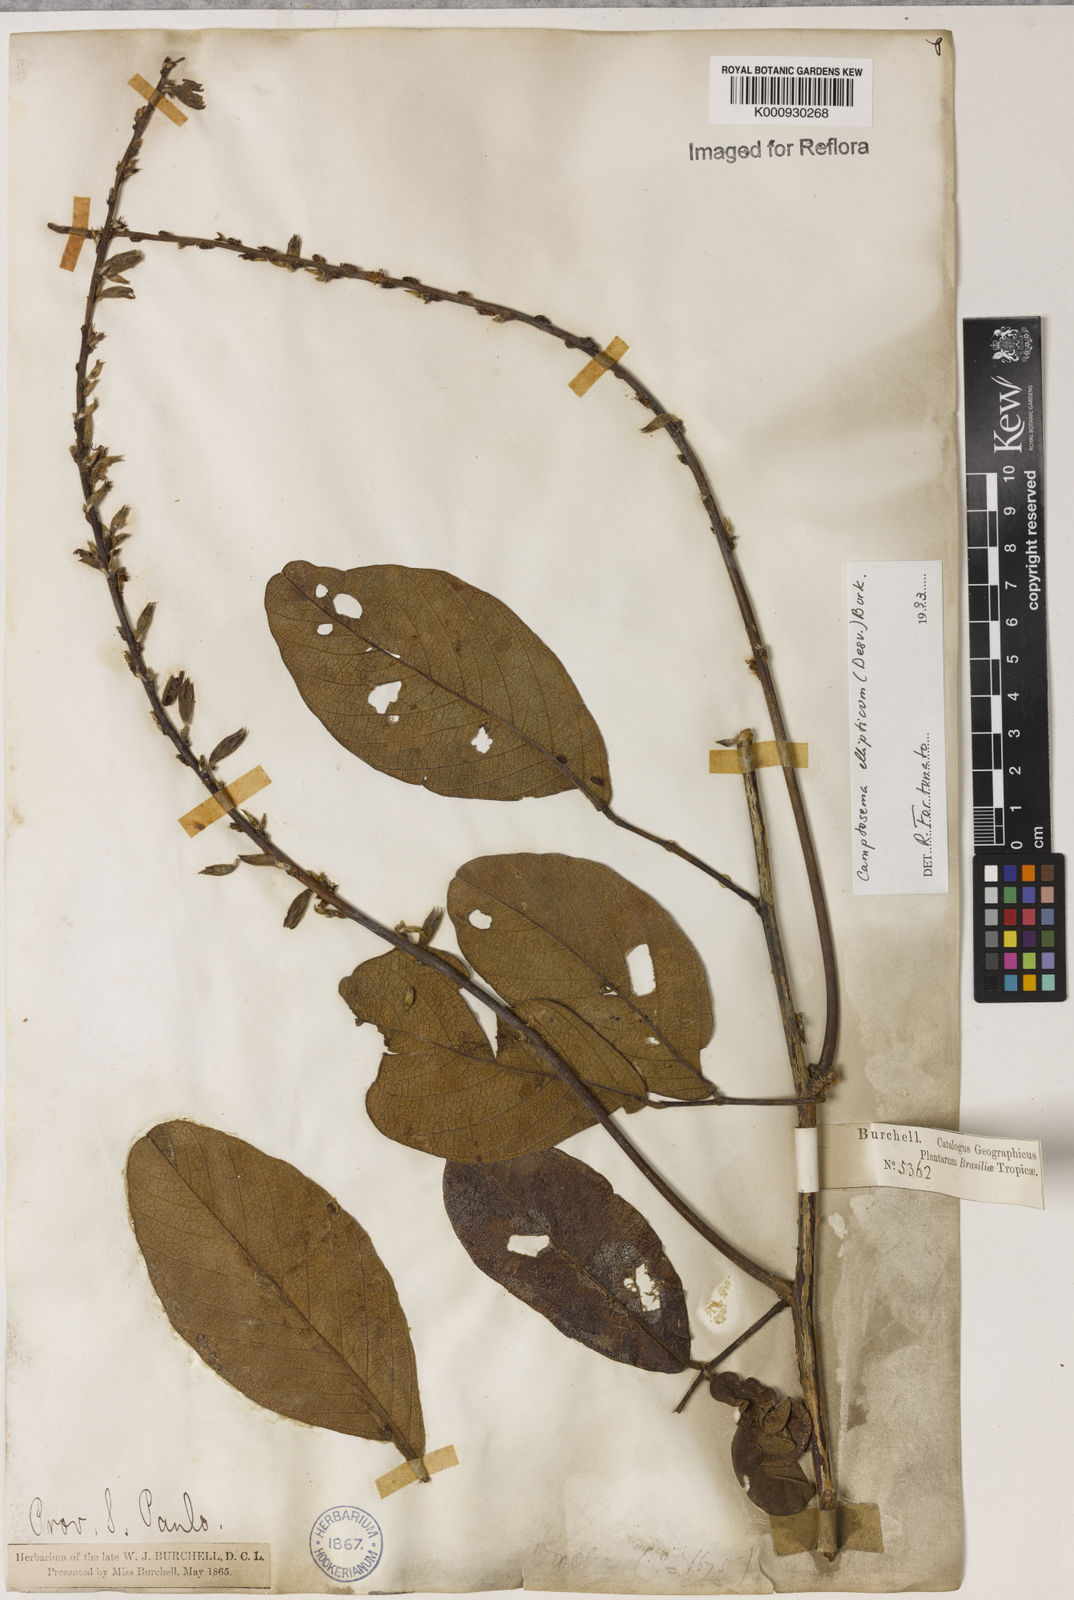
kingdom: Plantae
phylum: Tracheophyta
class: Magnoliopsida
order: Fabales
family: Fabaceae
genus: Camptosema
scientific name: Camptosema
